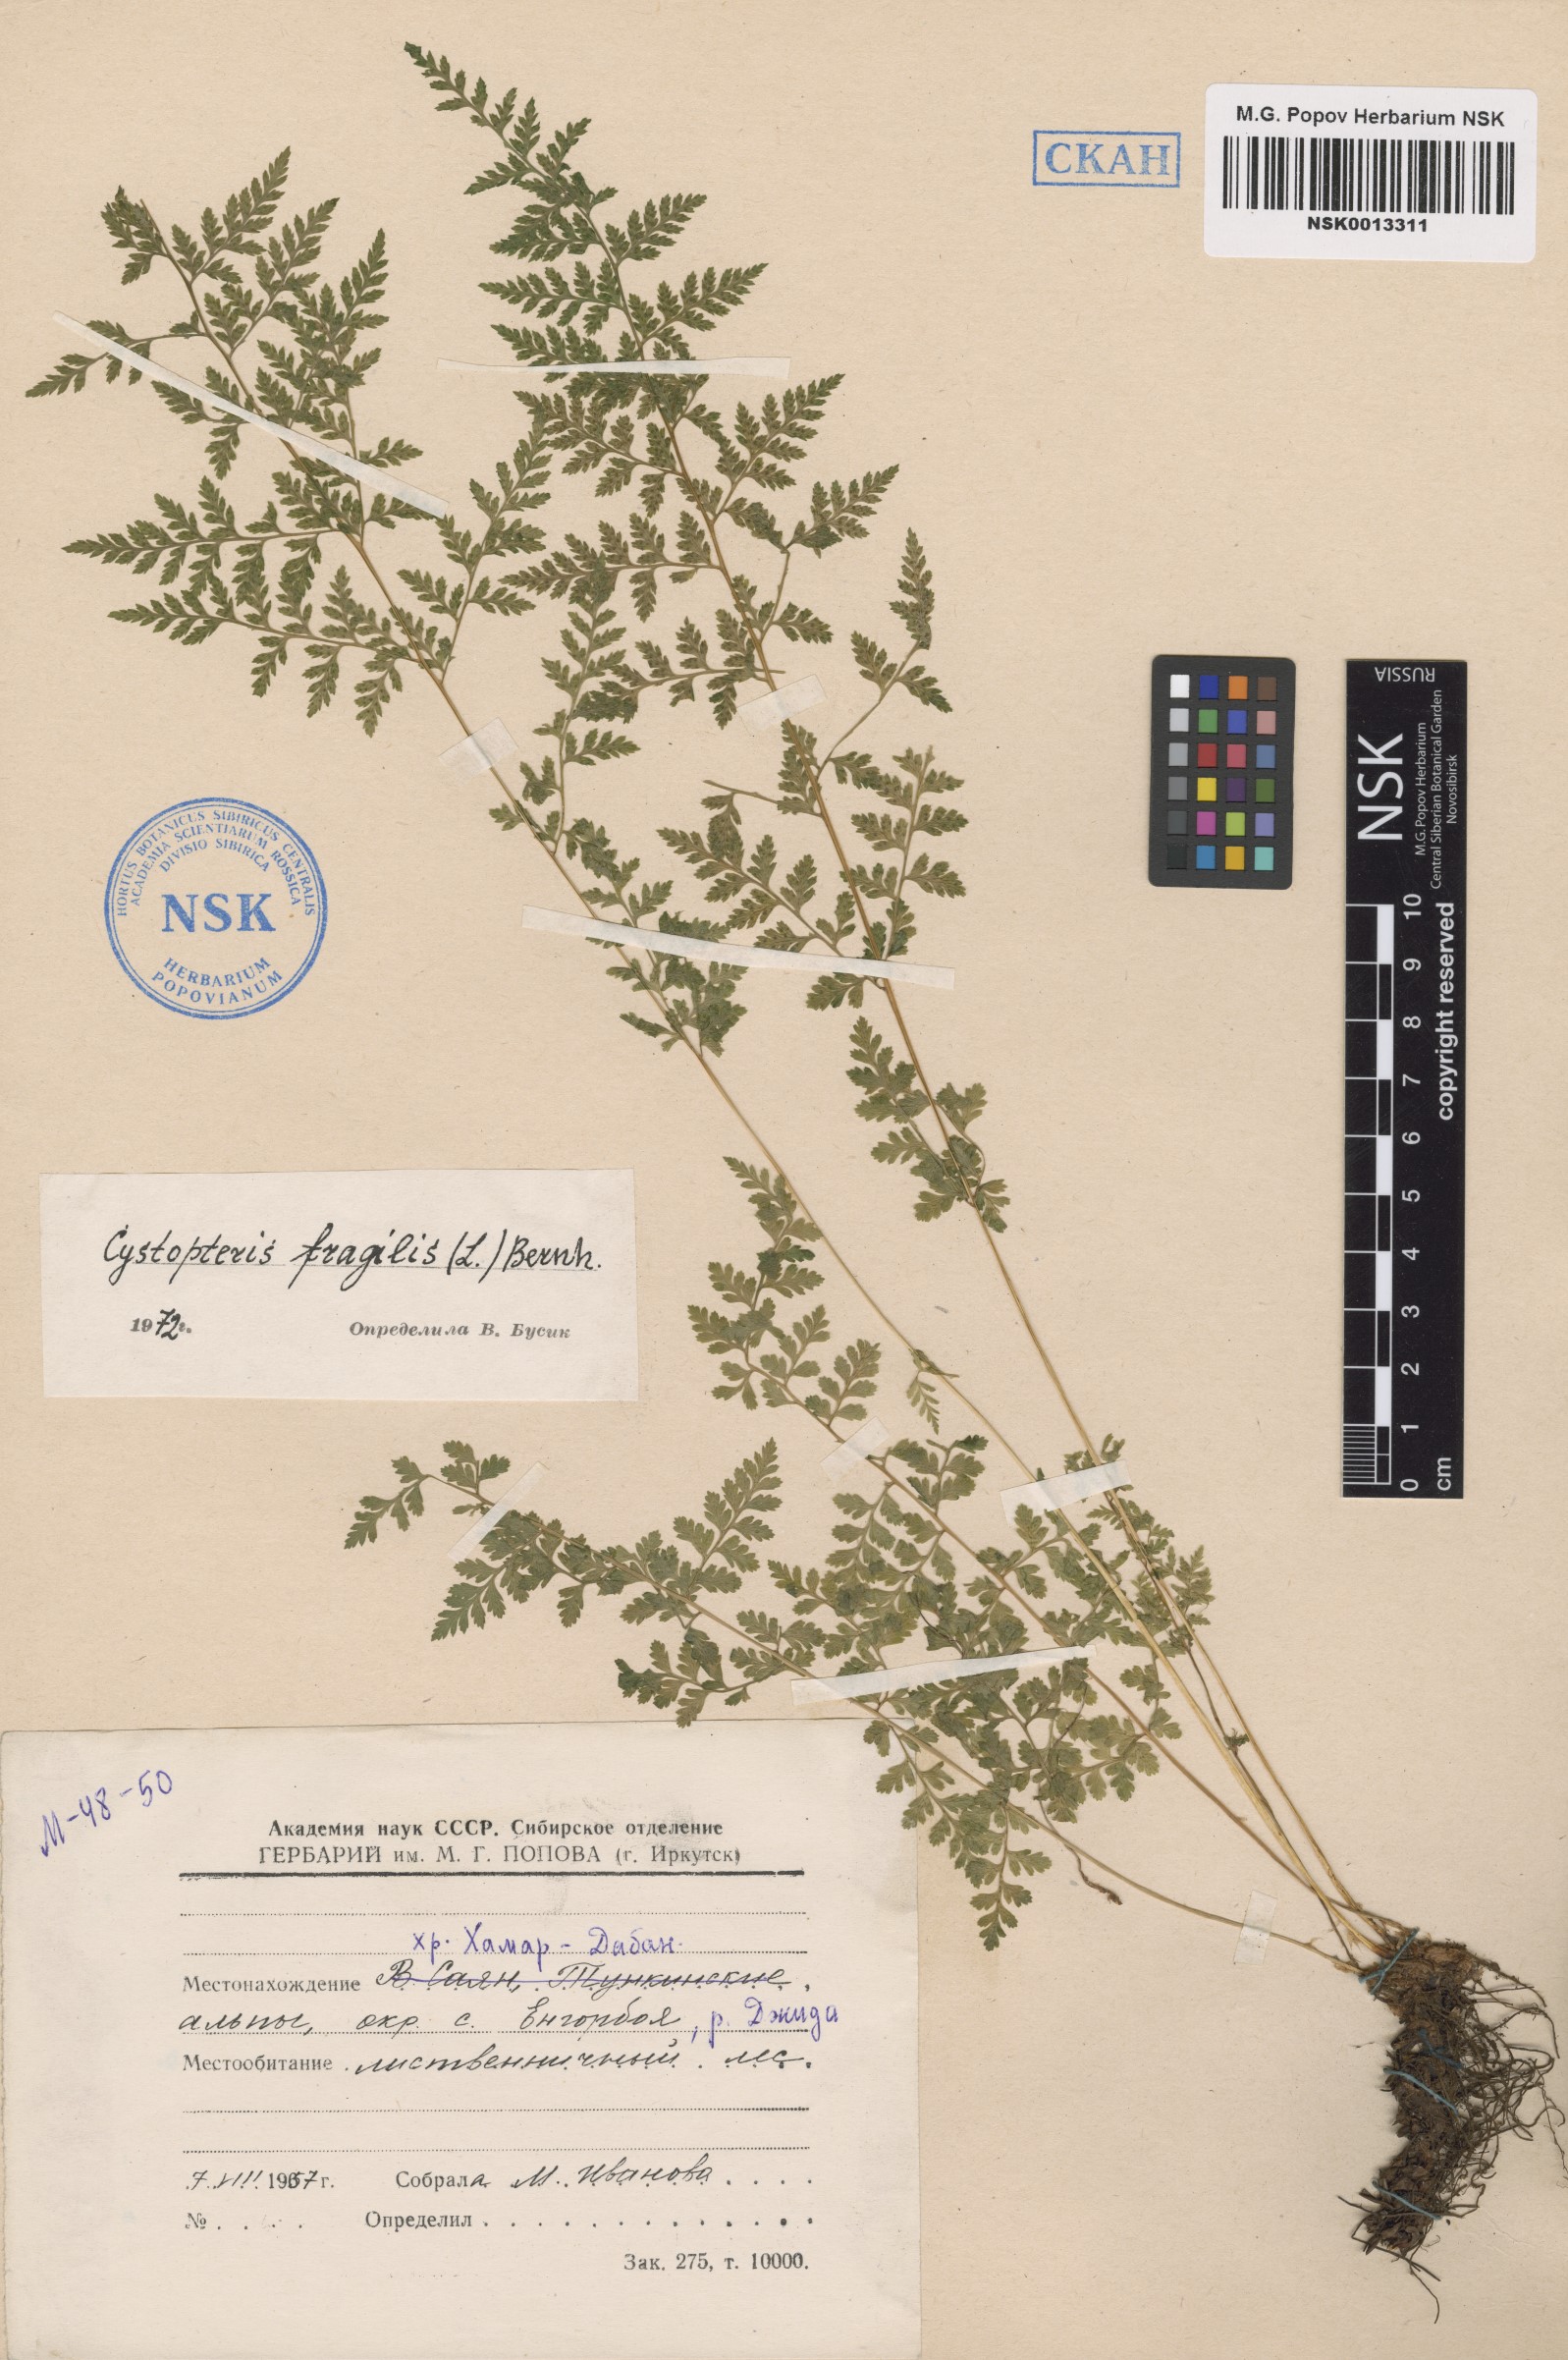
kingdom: Plantae
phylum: Tracheophyta
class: Polypodiopsida
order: Polypodiales
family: Cystopteridaceae
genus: Cystopteris
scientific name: Cystopteris fragilis
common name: Brittle bladder fern
